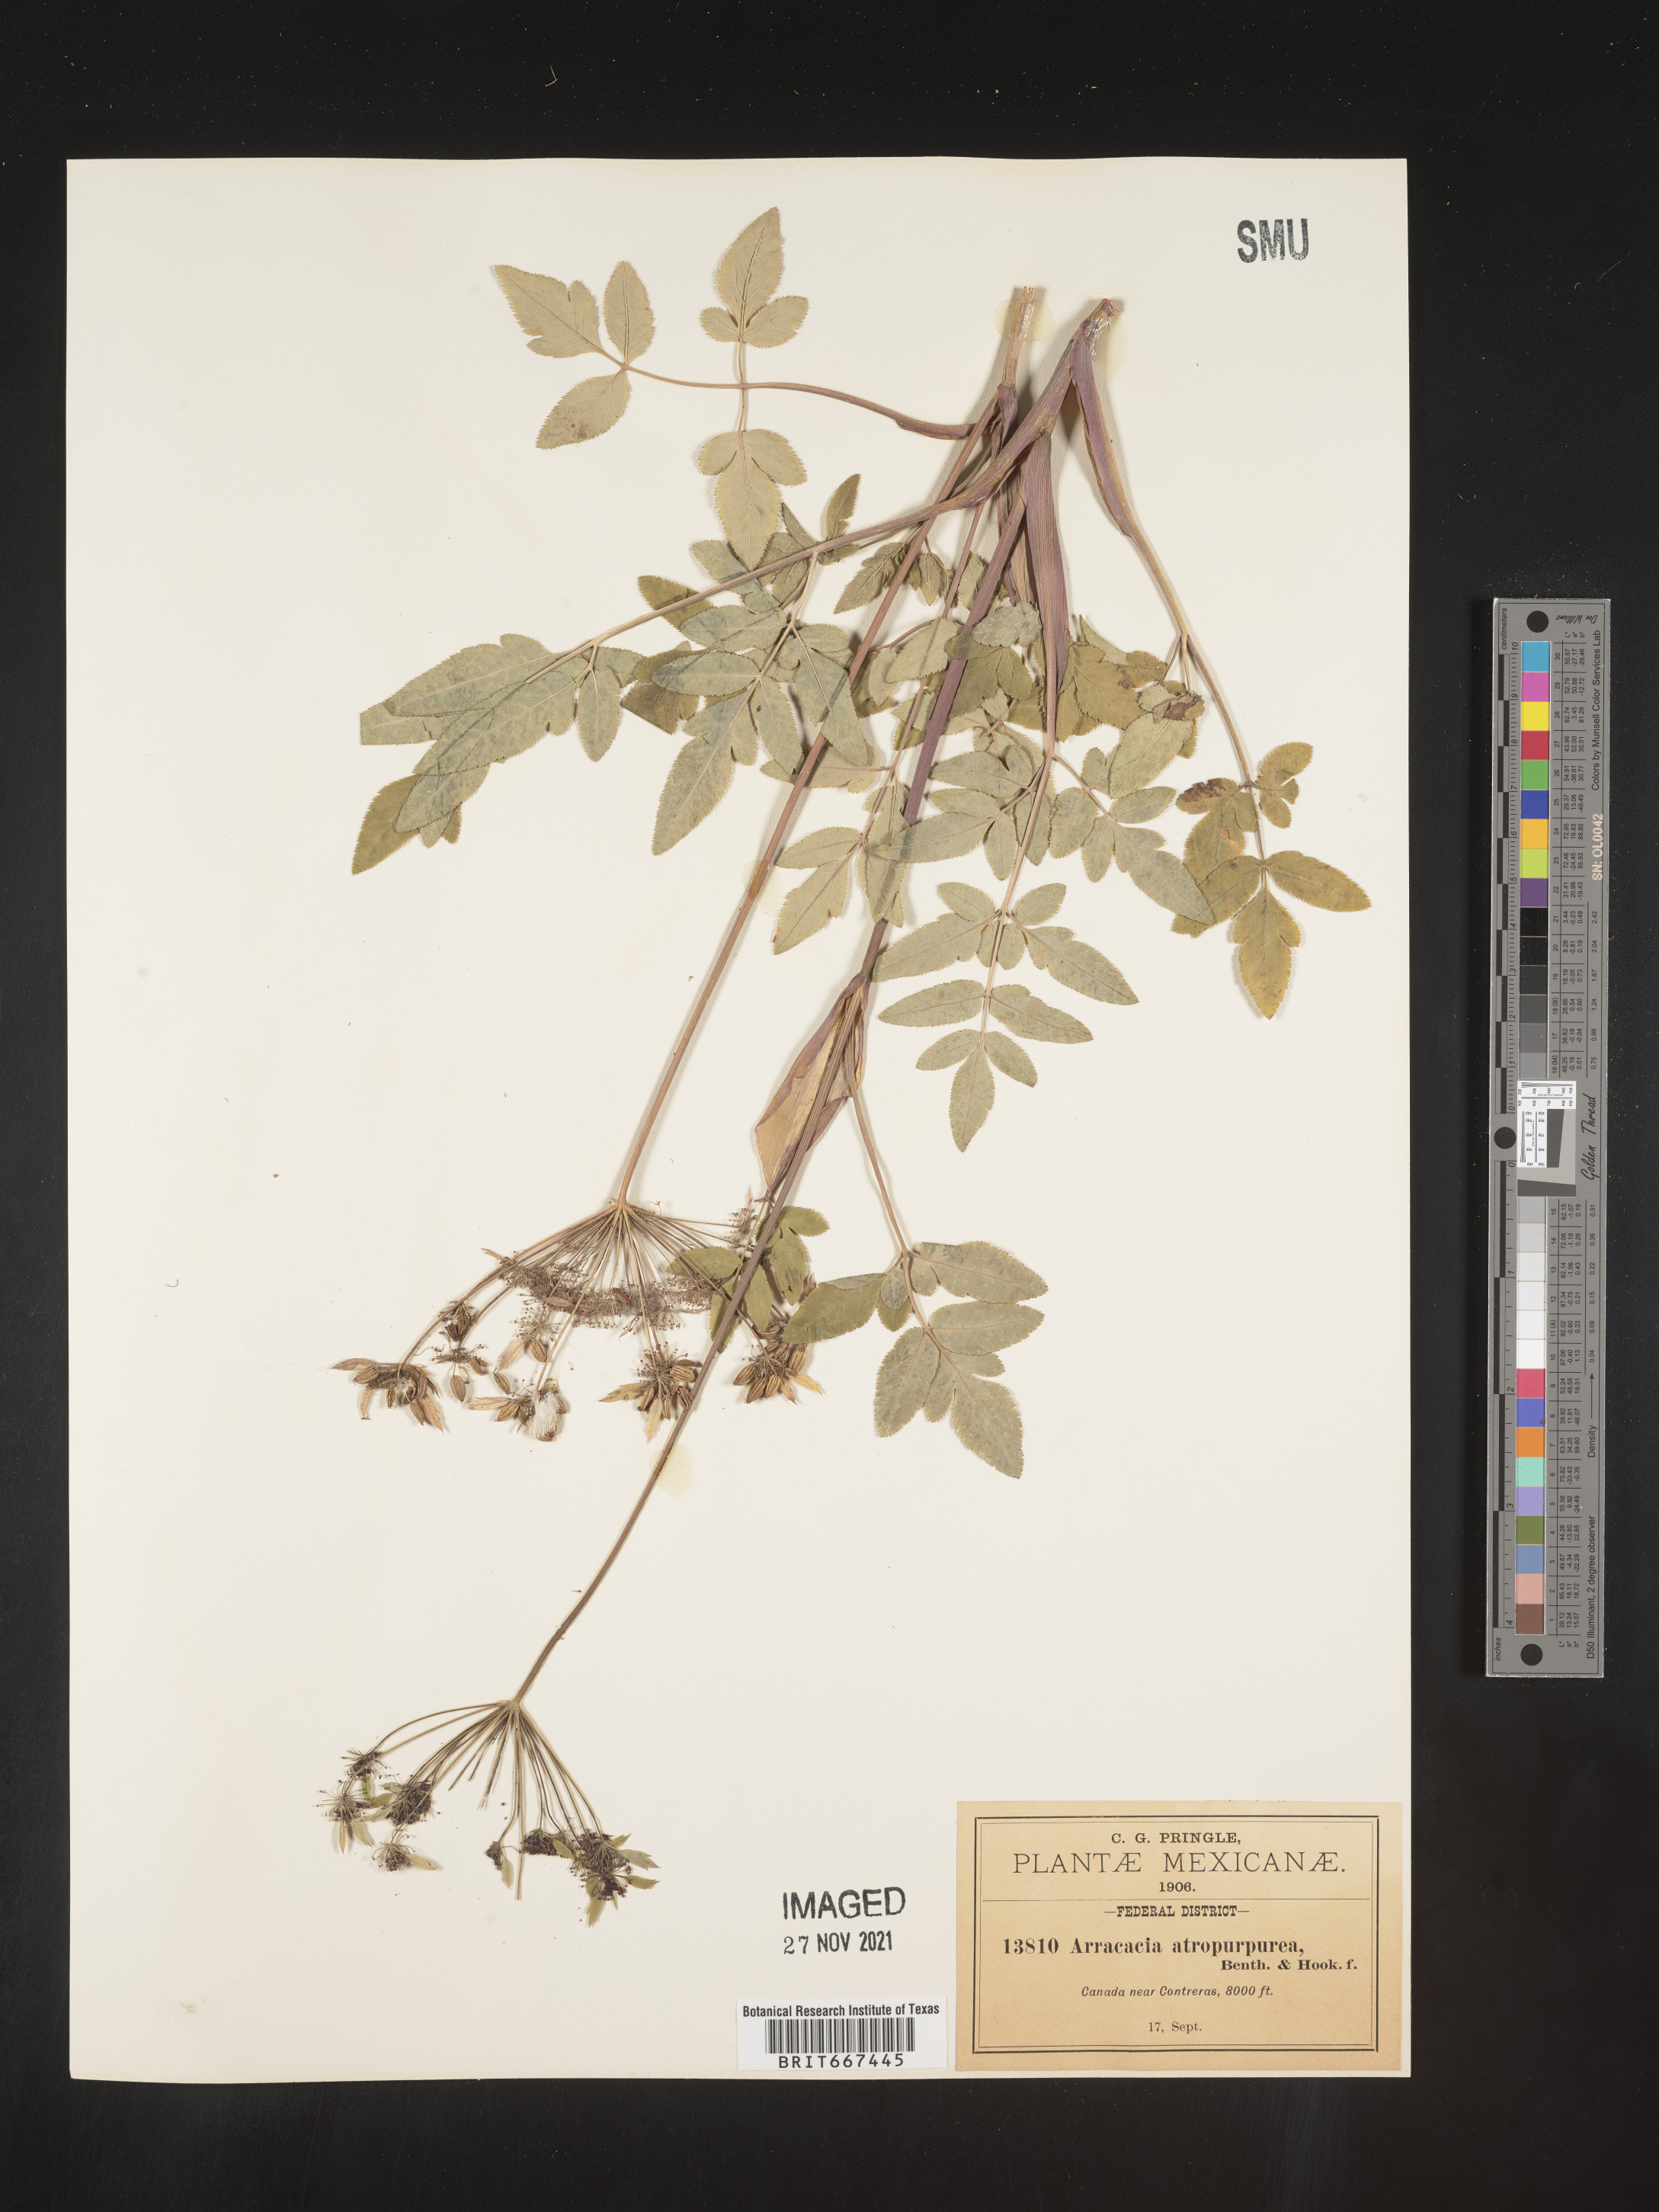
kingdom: Plantae
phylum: Tracheophyta
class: Magnoliopsida
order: Apiales
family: Apiaceae
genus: Arracacia
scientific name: Arracacia
